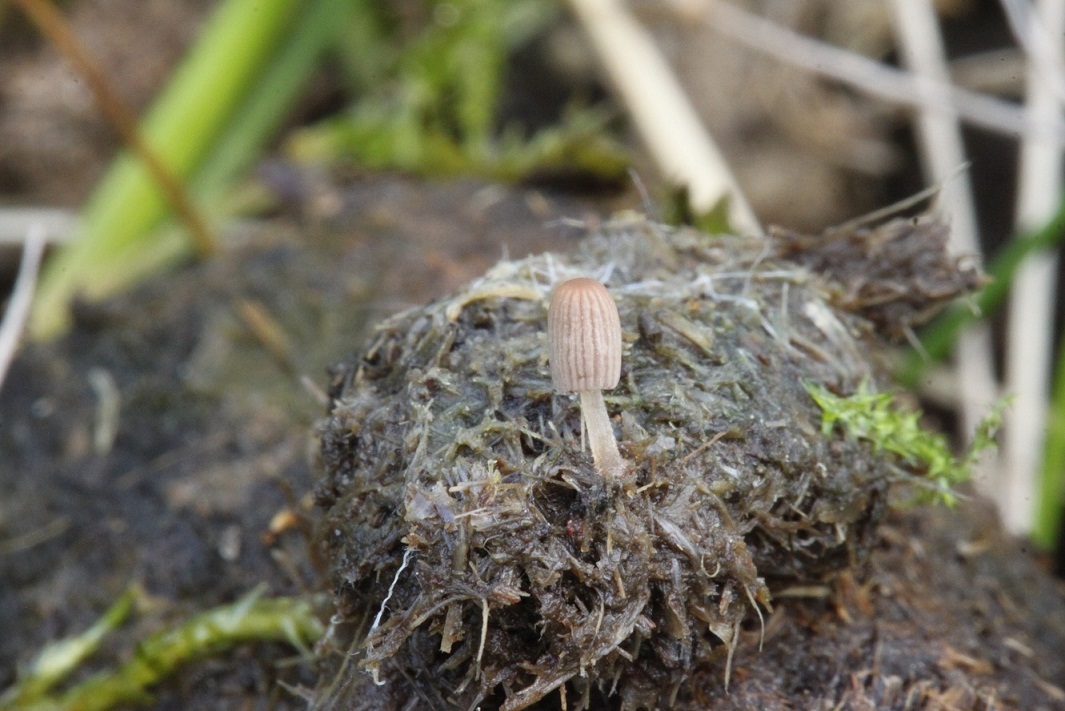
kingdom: Fungi
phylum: Basidiomycota
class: Agaricomycetes
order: Agaricales
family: Psathyrellaceae
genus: Parasola
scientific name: Parasola misera
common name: lillebitte hjulhat
